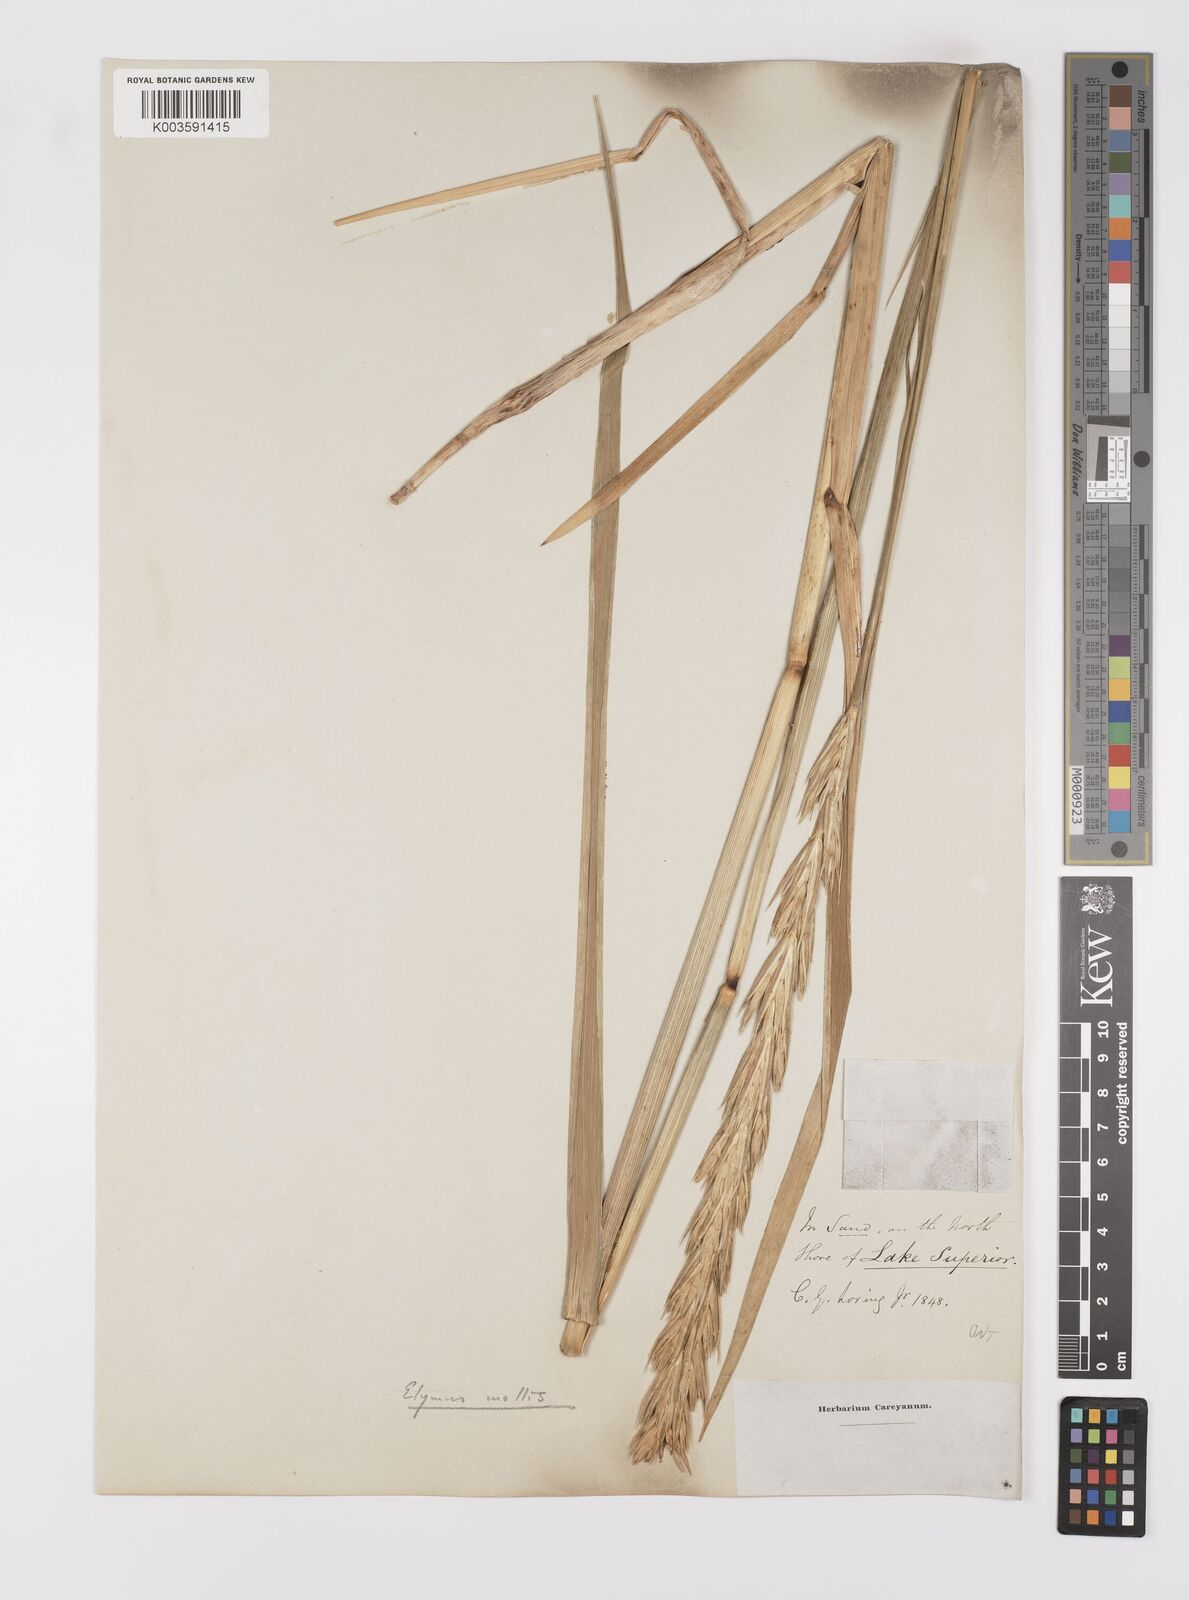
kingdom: Plantae
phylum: Tracheophyta
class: Liliopsida
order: Poales
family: Poaceae
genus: Leymus
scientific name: Leymus mollis
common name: American dune grass
